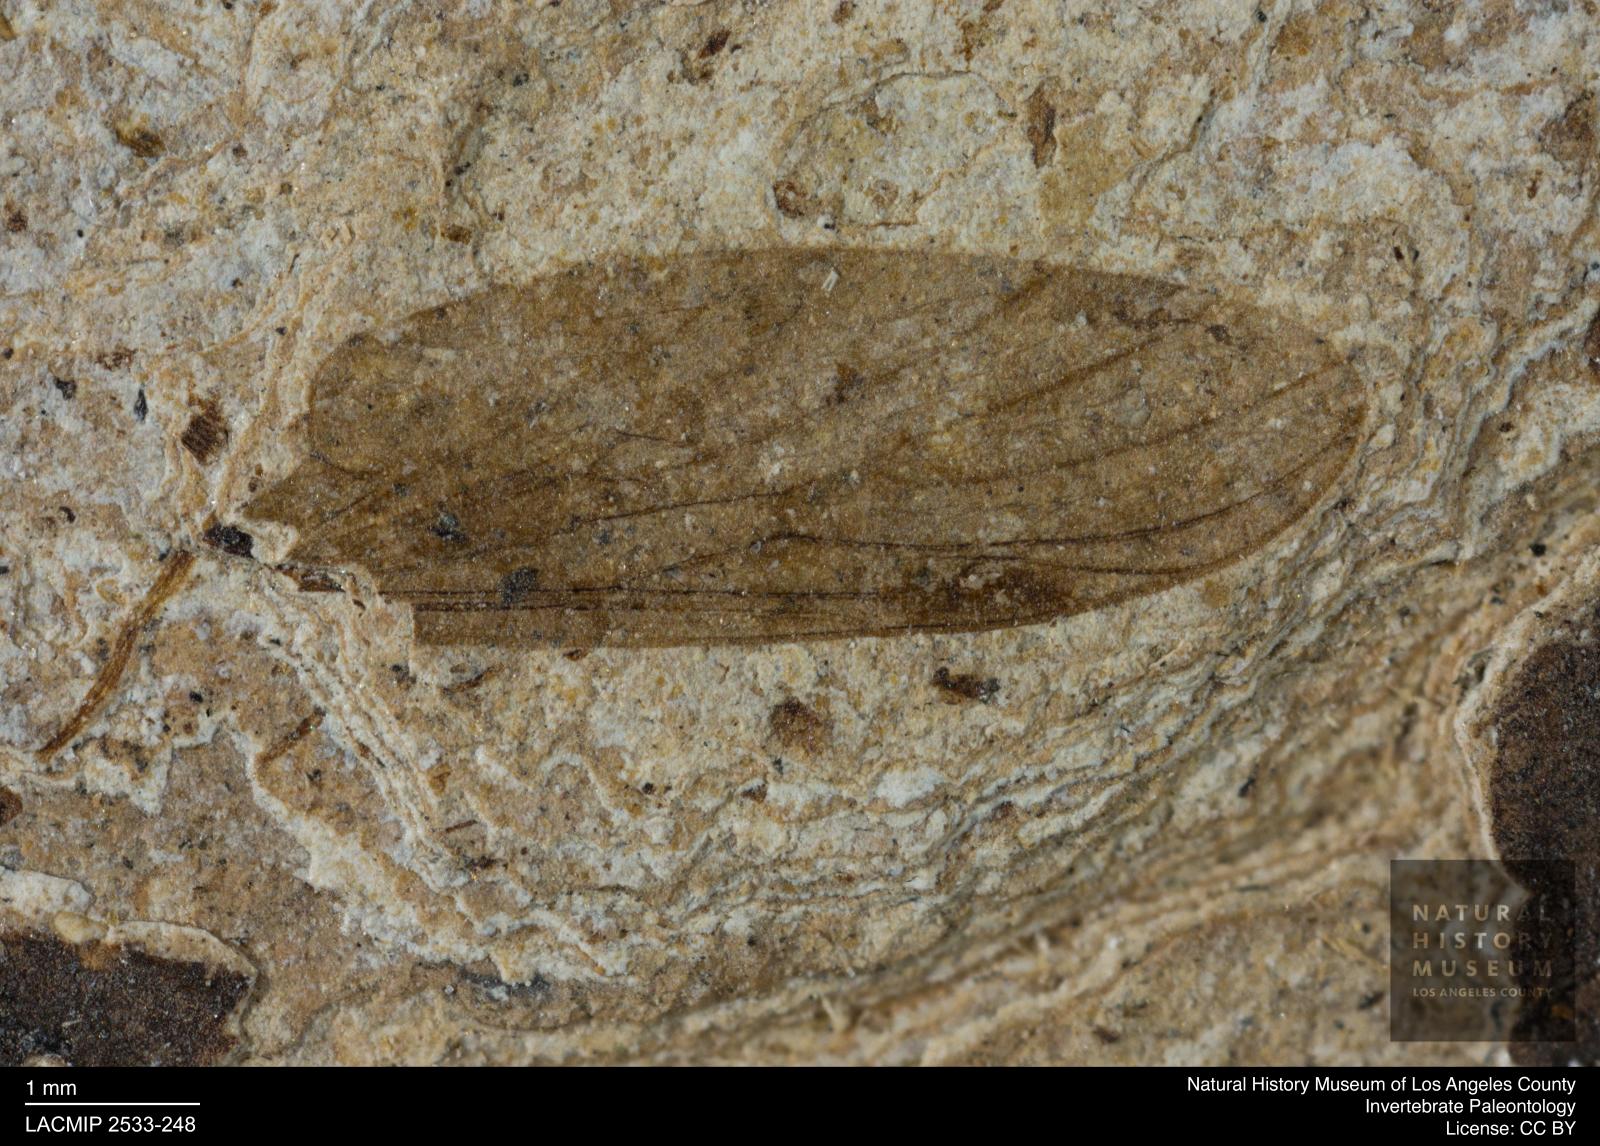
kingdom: Animalia
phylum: Arthropoda
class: Insecta
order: Diptera
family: Bibionidae
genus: Penthetria
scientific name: Penthetria
